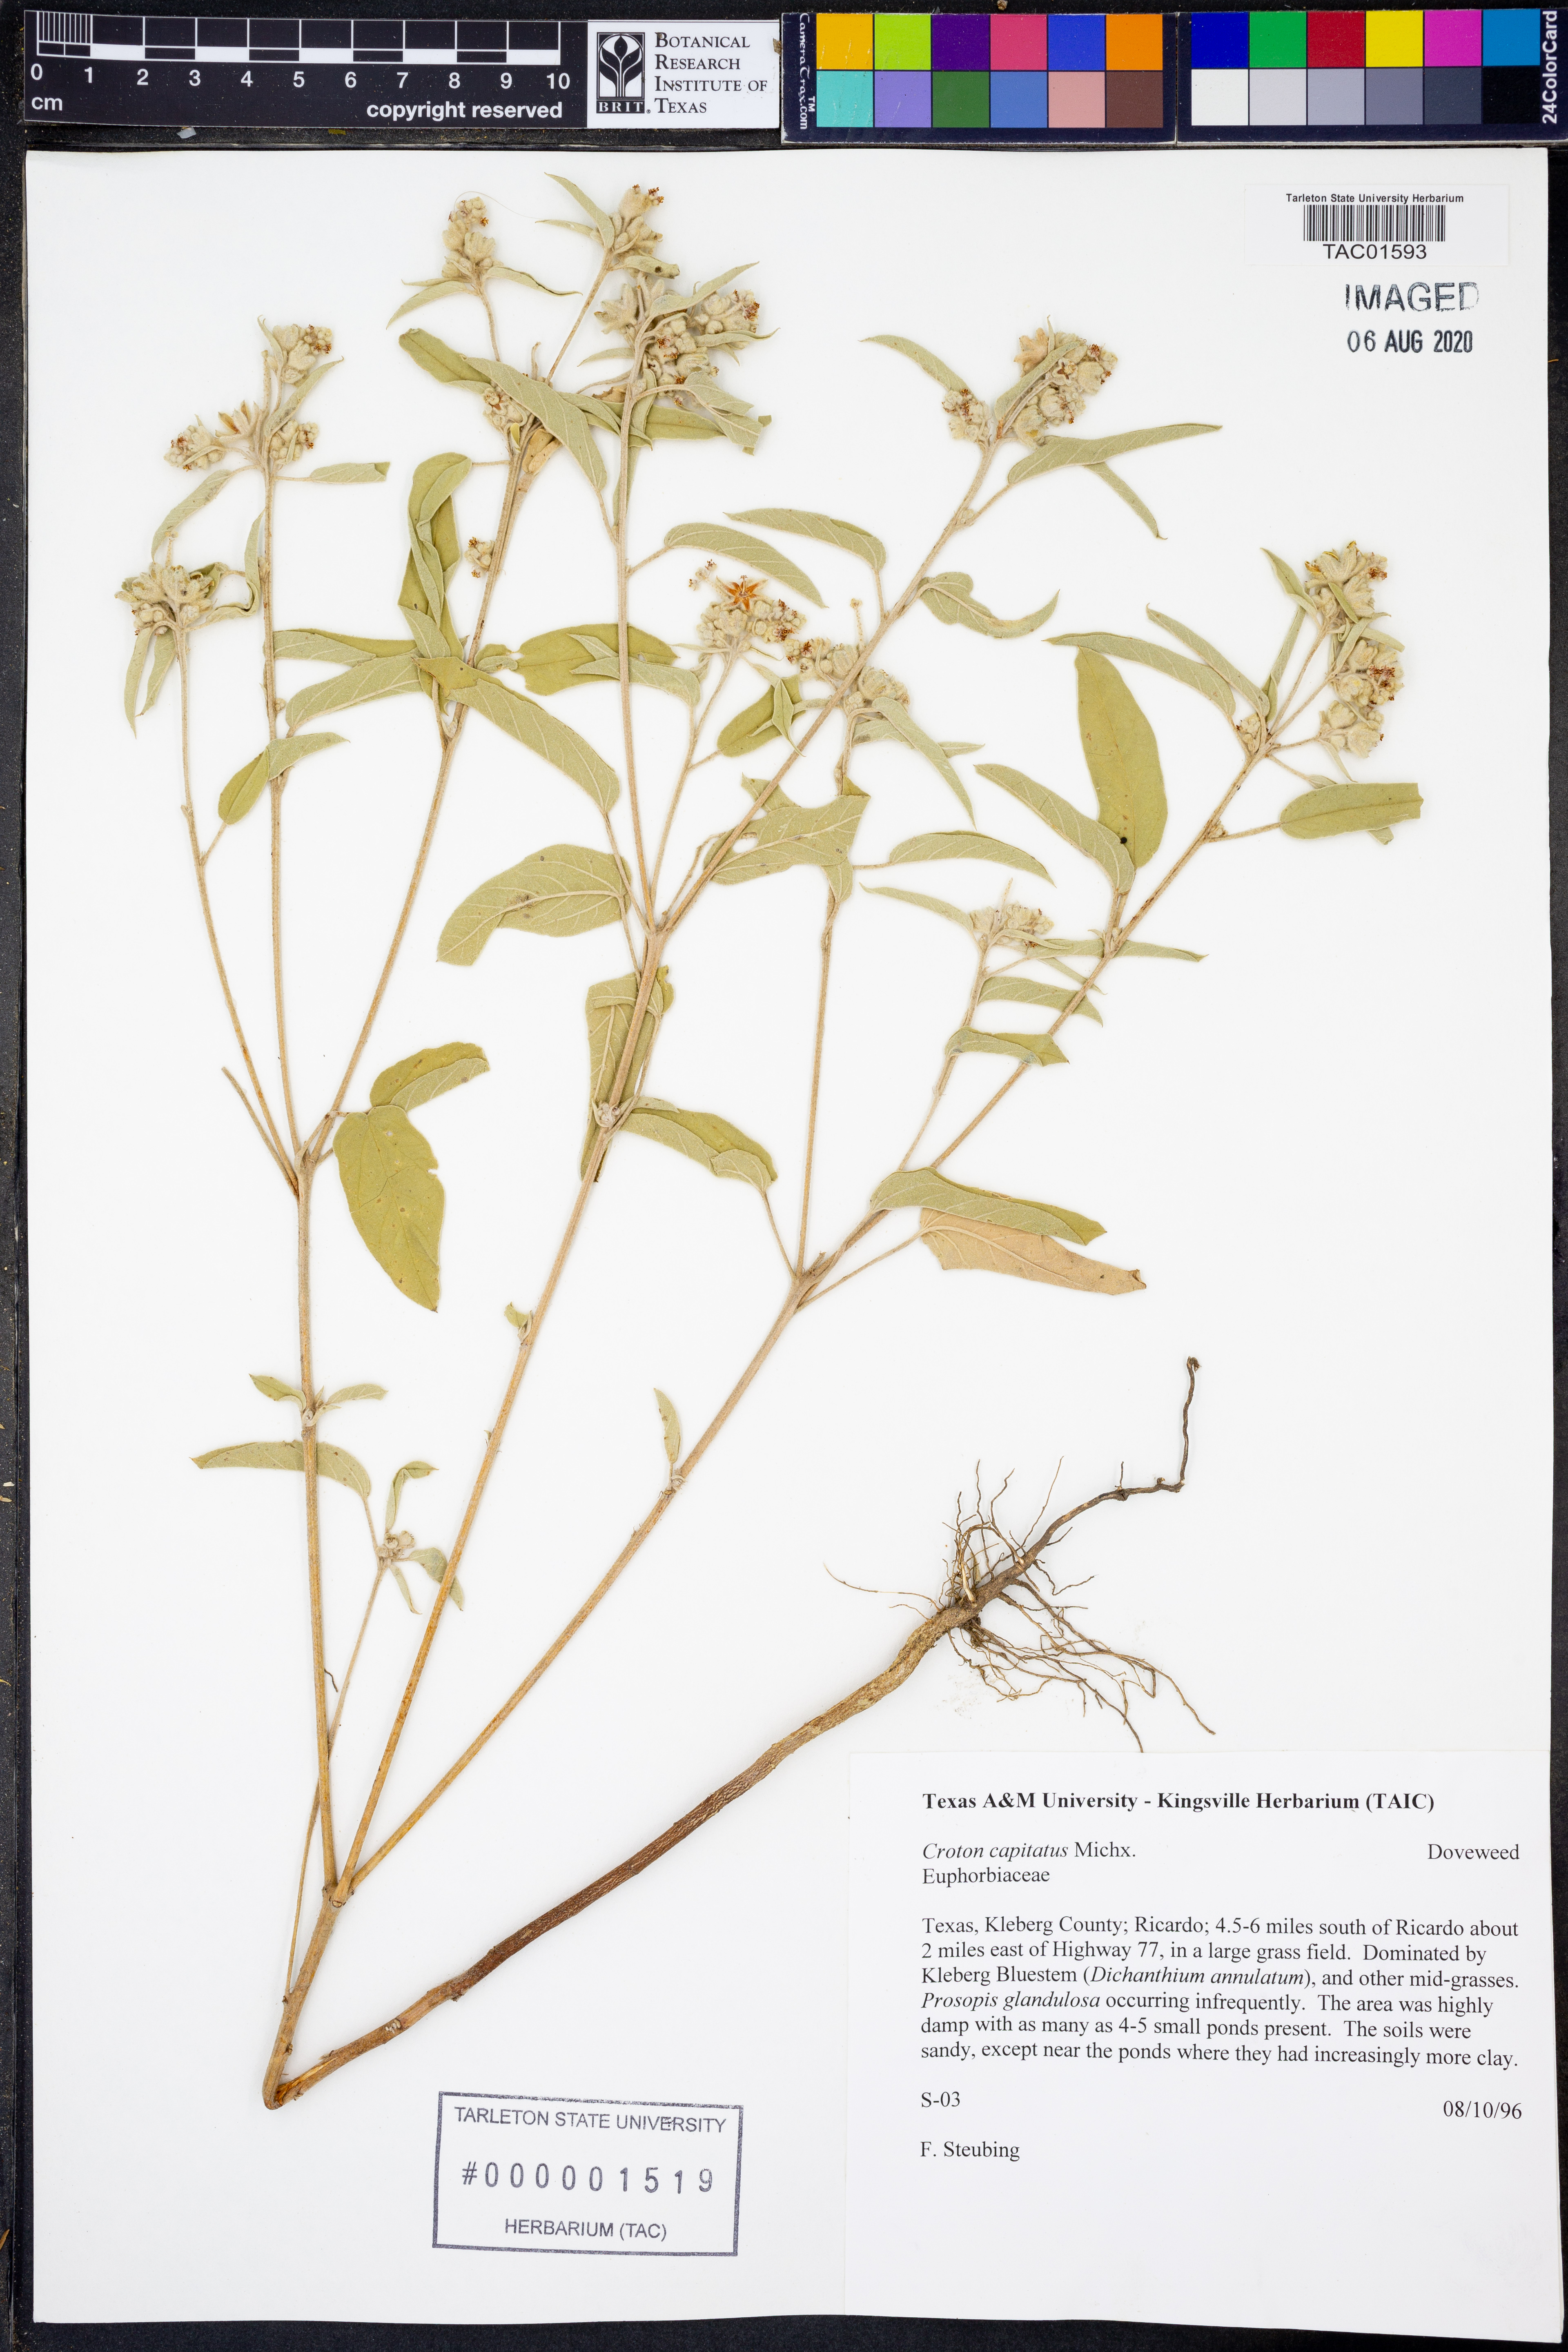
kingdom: Plantae
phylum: Tracheophyta
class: Magnoliopsida
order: Malpighiales
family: Euphorbiaceae
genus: Croton
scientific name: Croton capitatus
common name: Woolly croton
